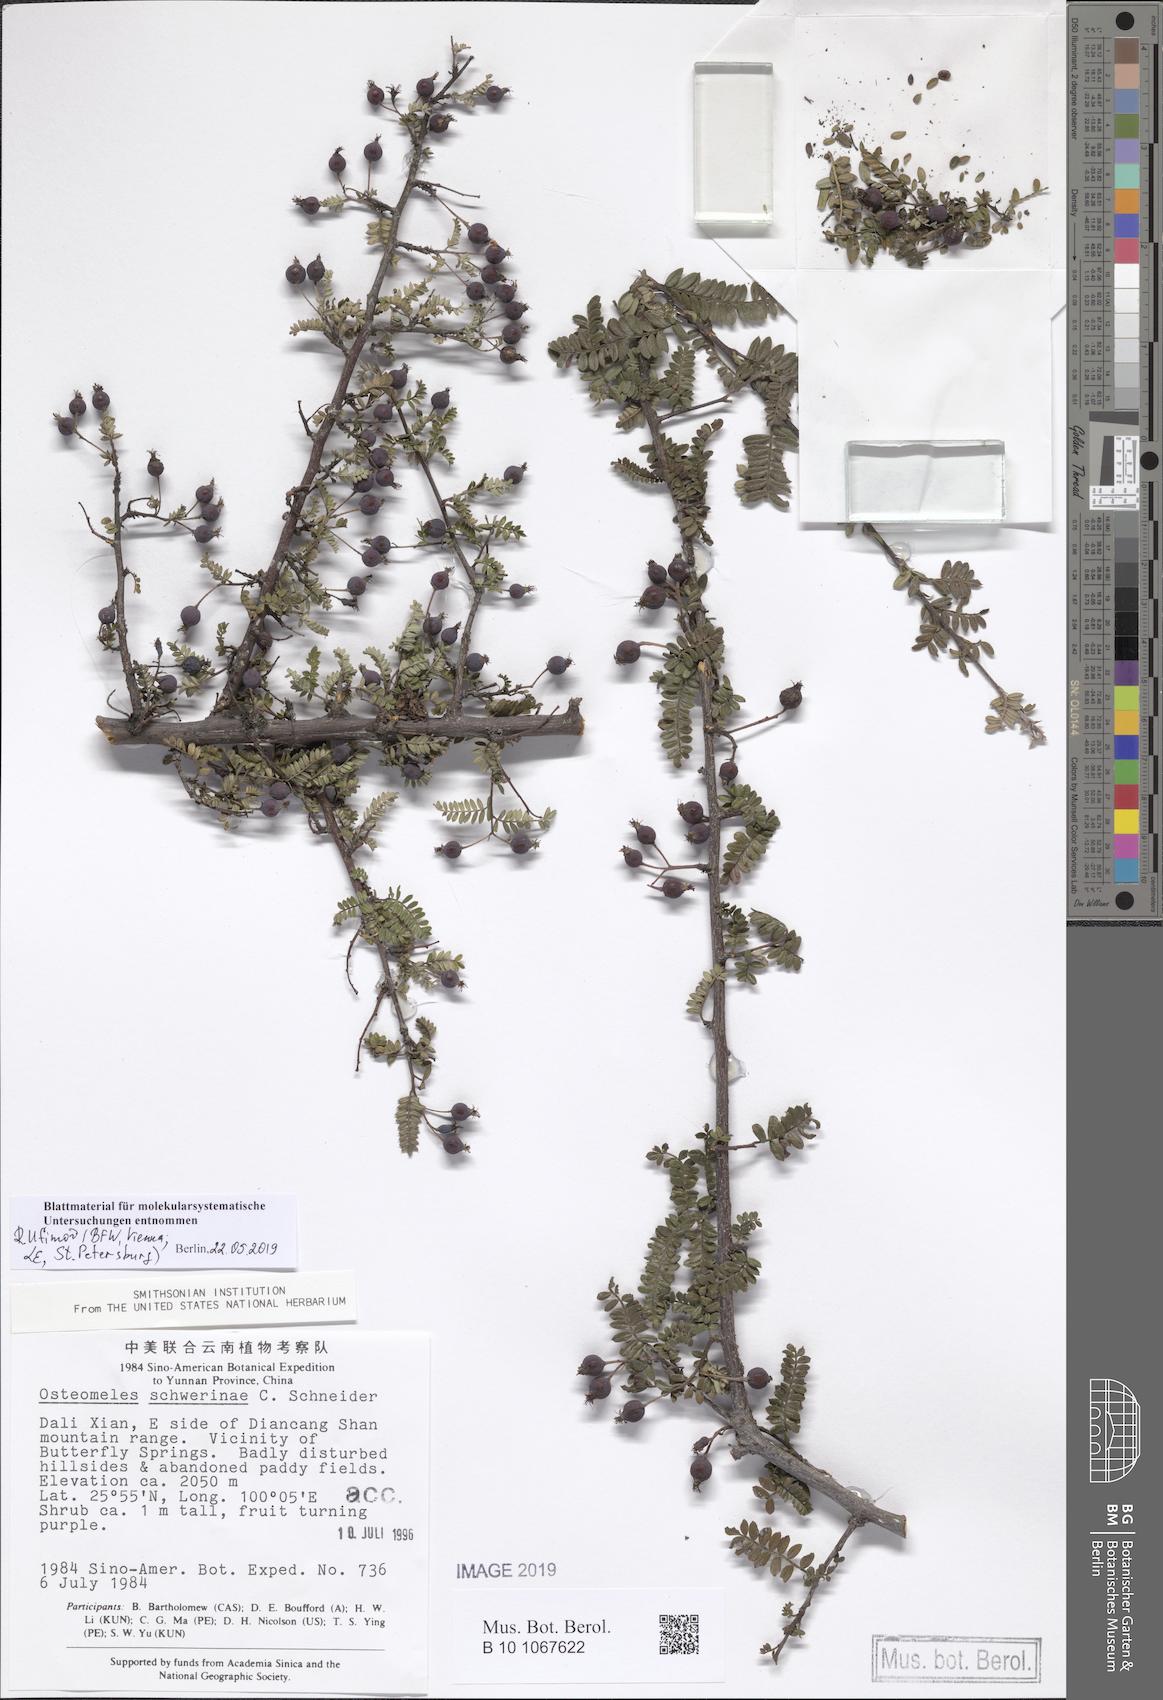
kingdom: Plantae
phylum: Tracheophyta
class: Magnoliopsida
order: Rosales
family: Rosaceae
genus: Osteomeles
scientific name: Osteomeles schwerinae
